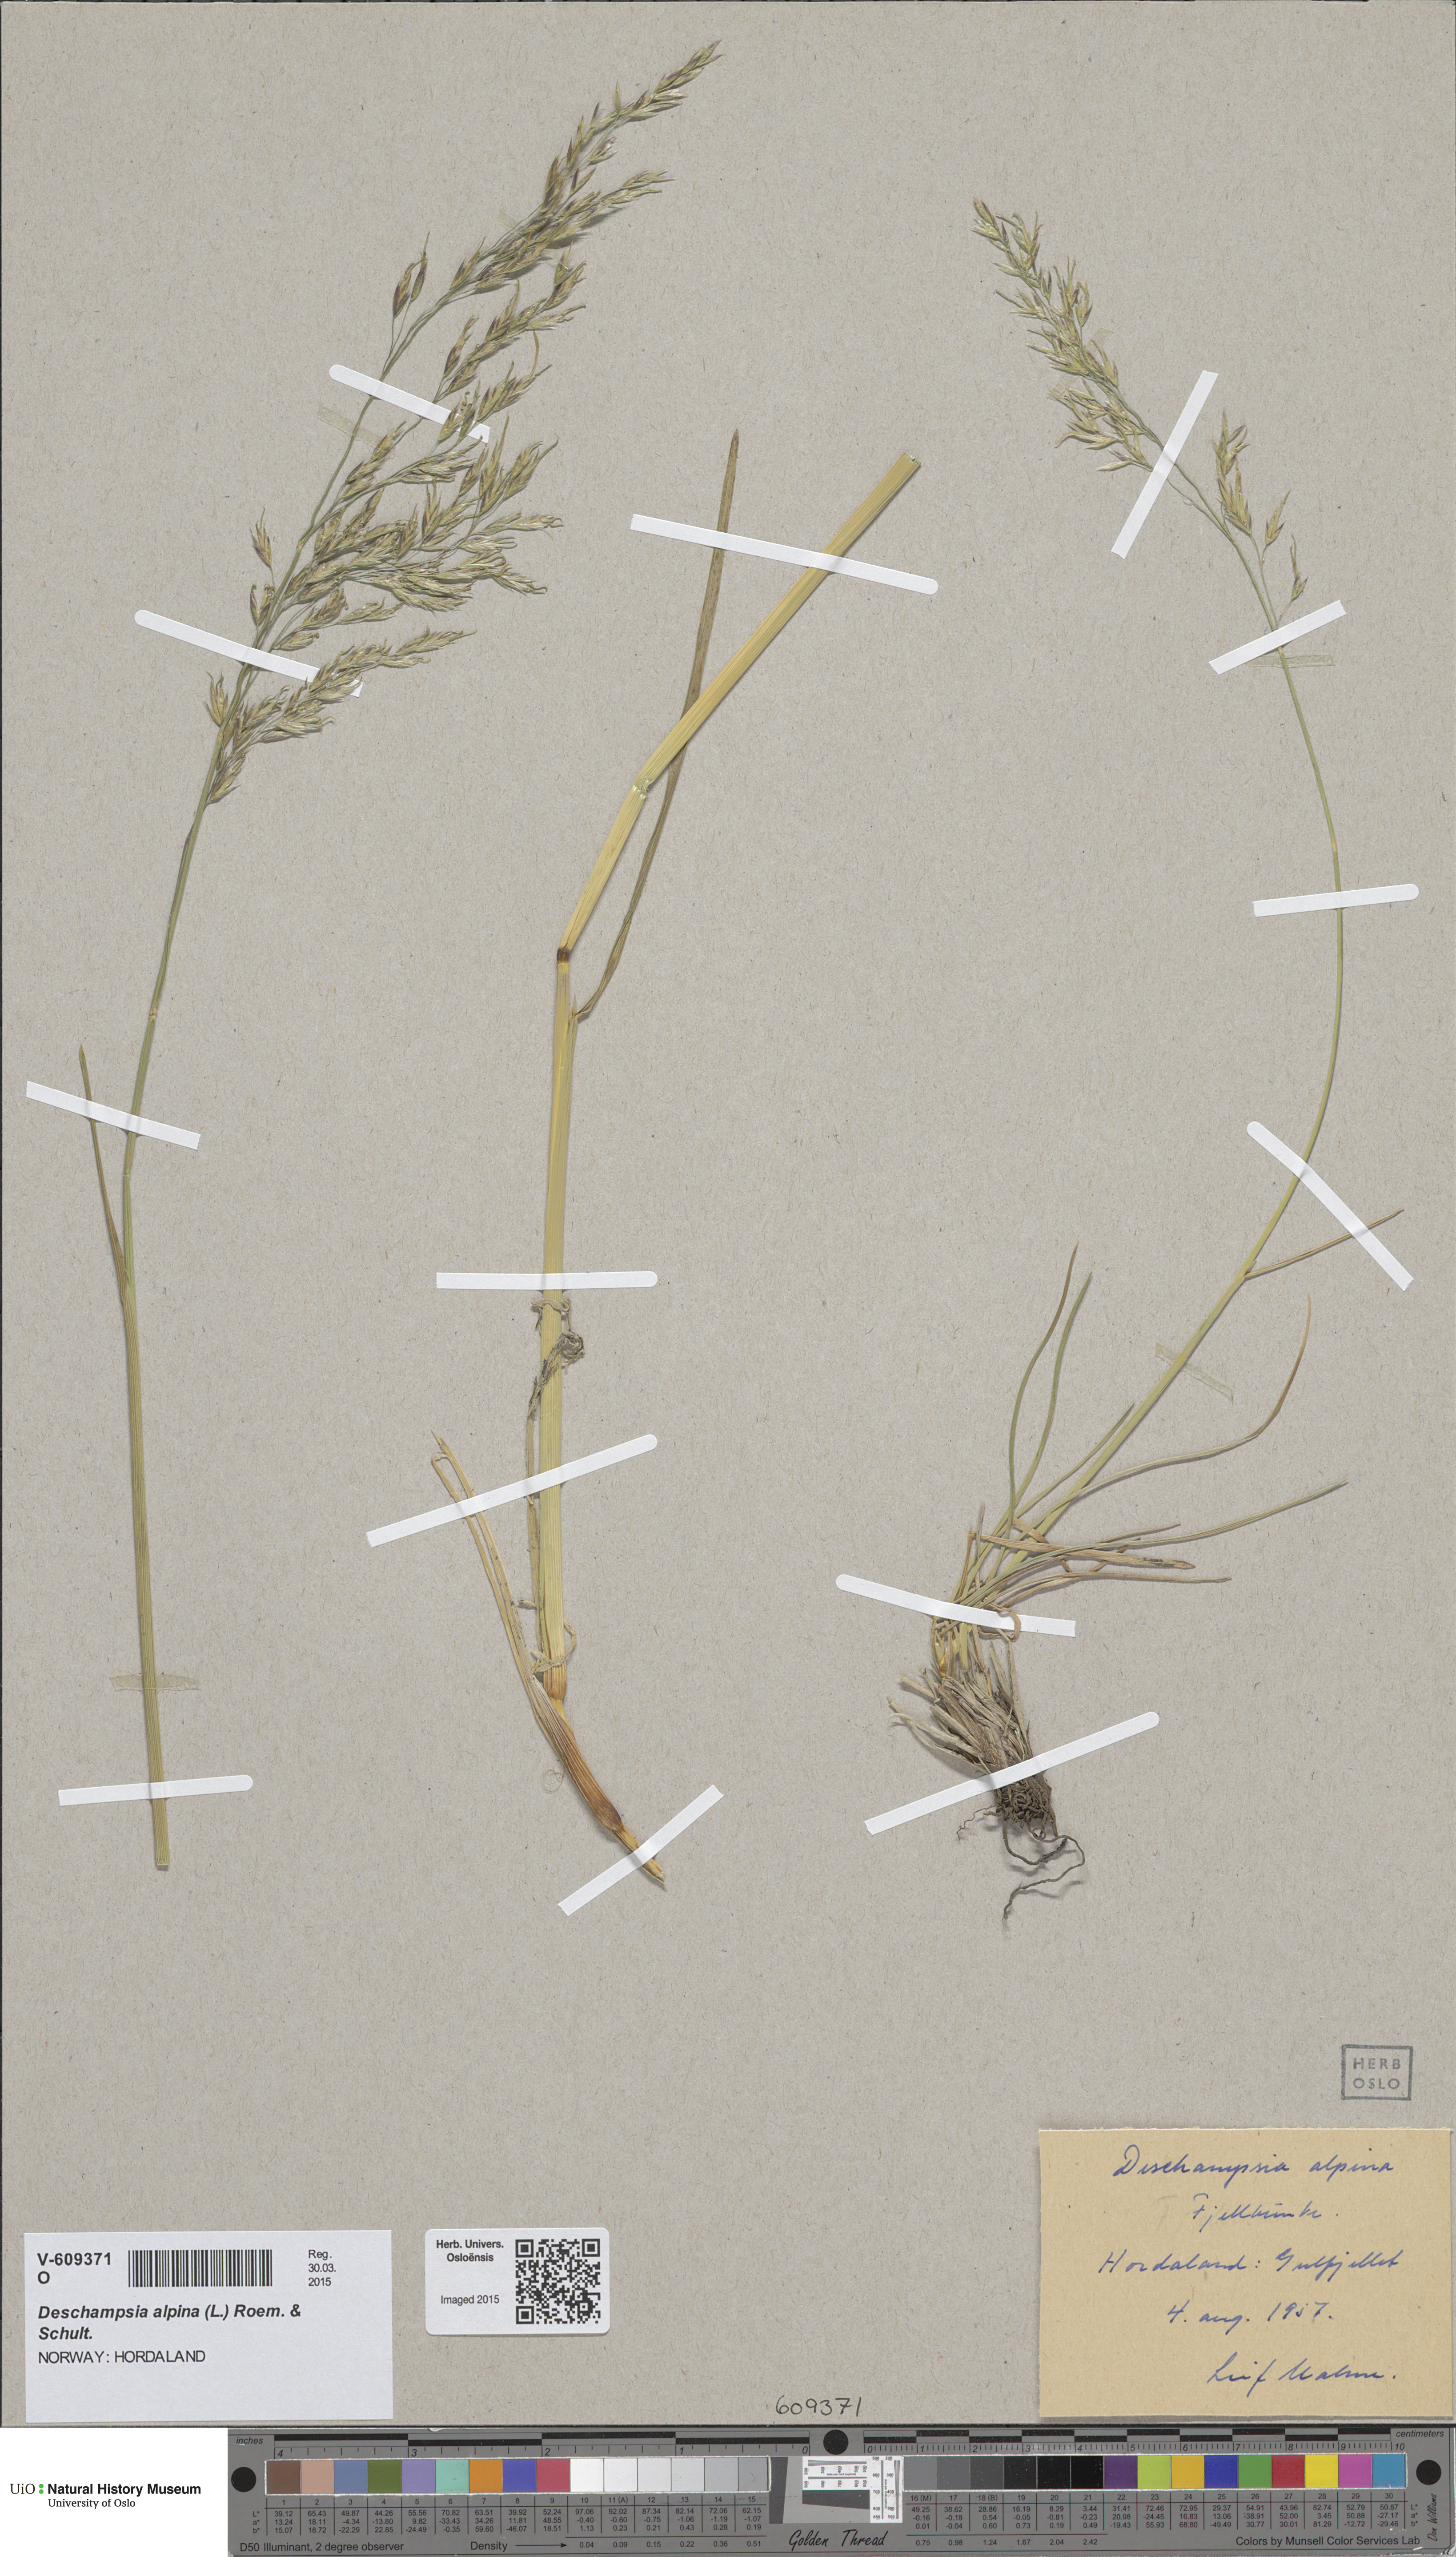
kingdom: Plantae
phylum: Tracheophyta
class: Liliopsida
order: Poales
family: Poaceae
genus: Deschampsia
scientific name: Deschampsia cespitosa
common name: Tufted hair-grass
